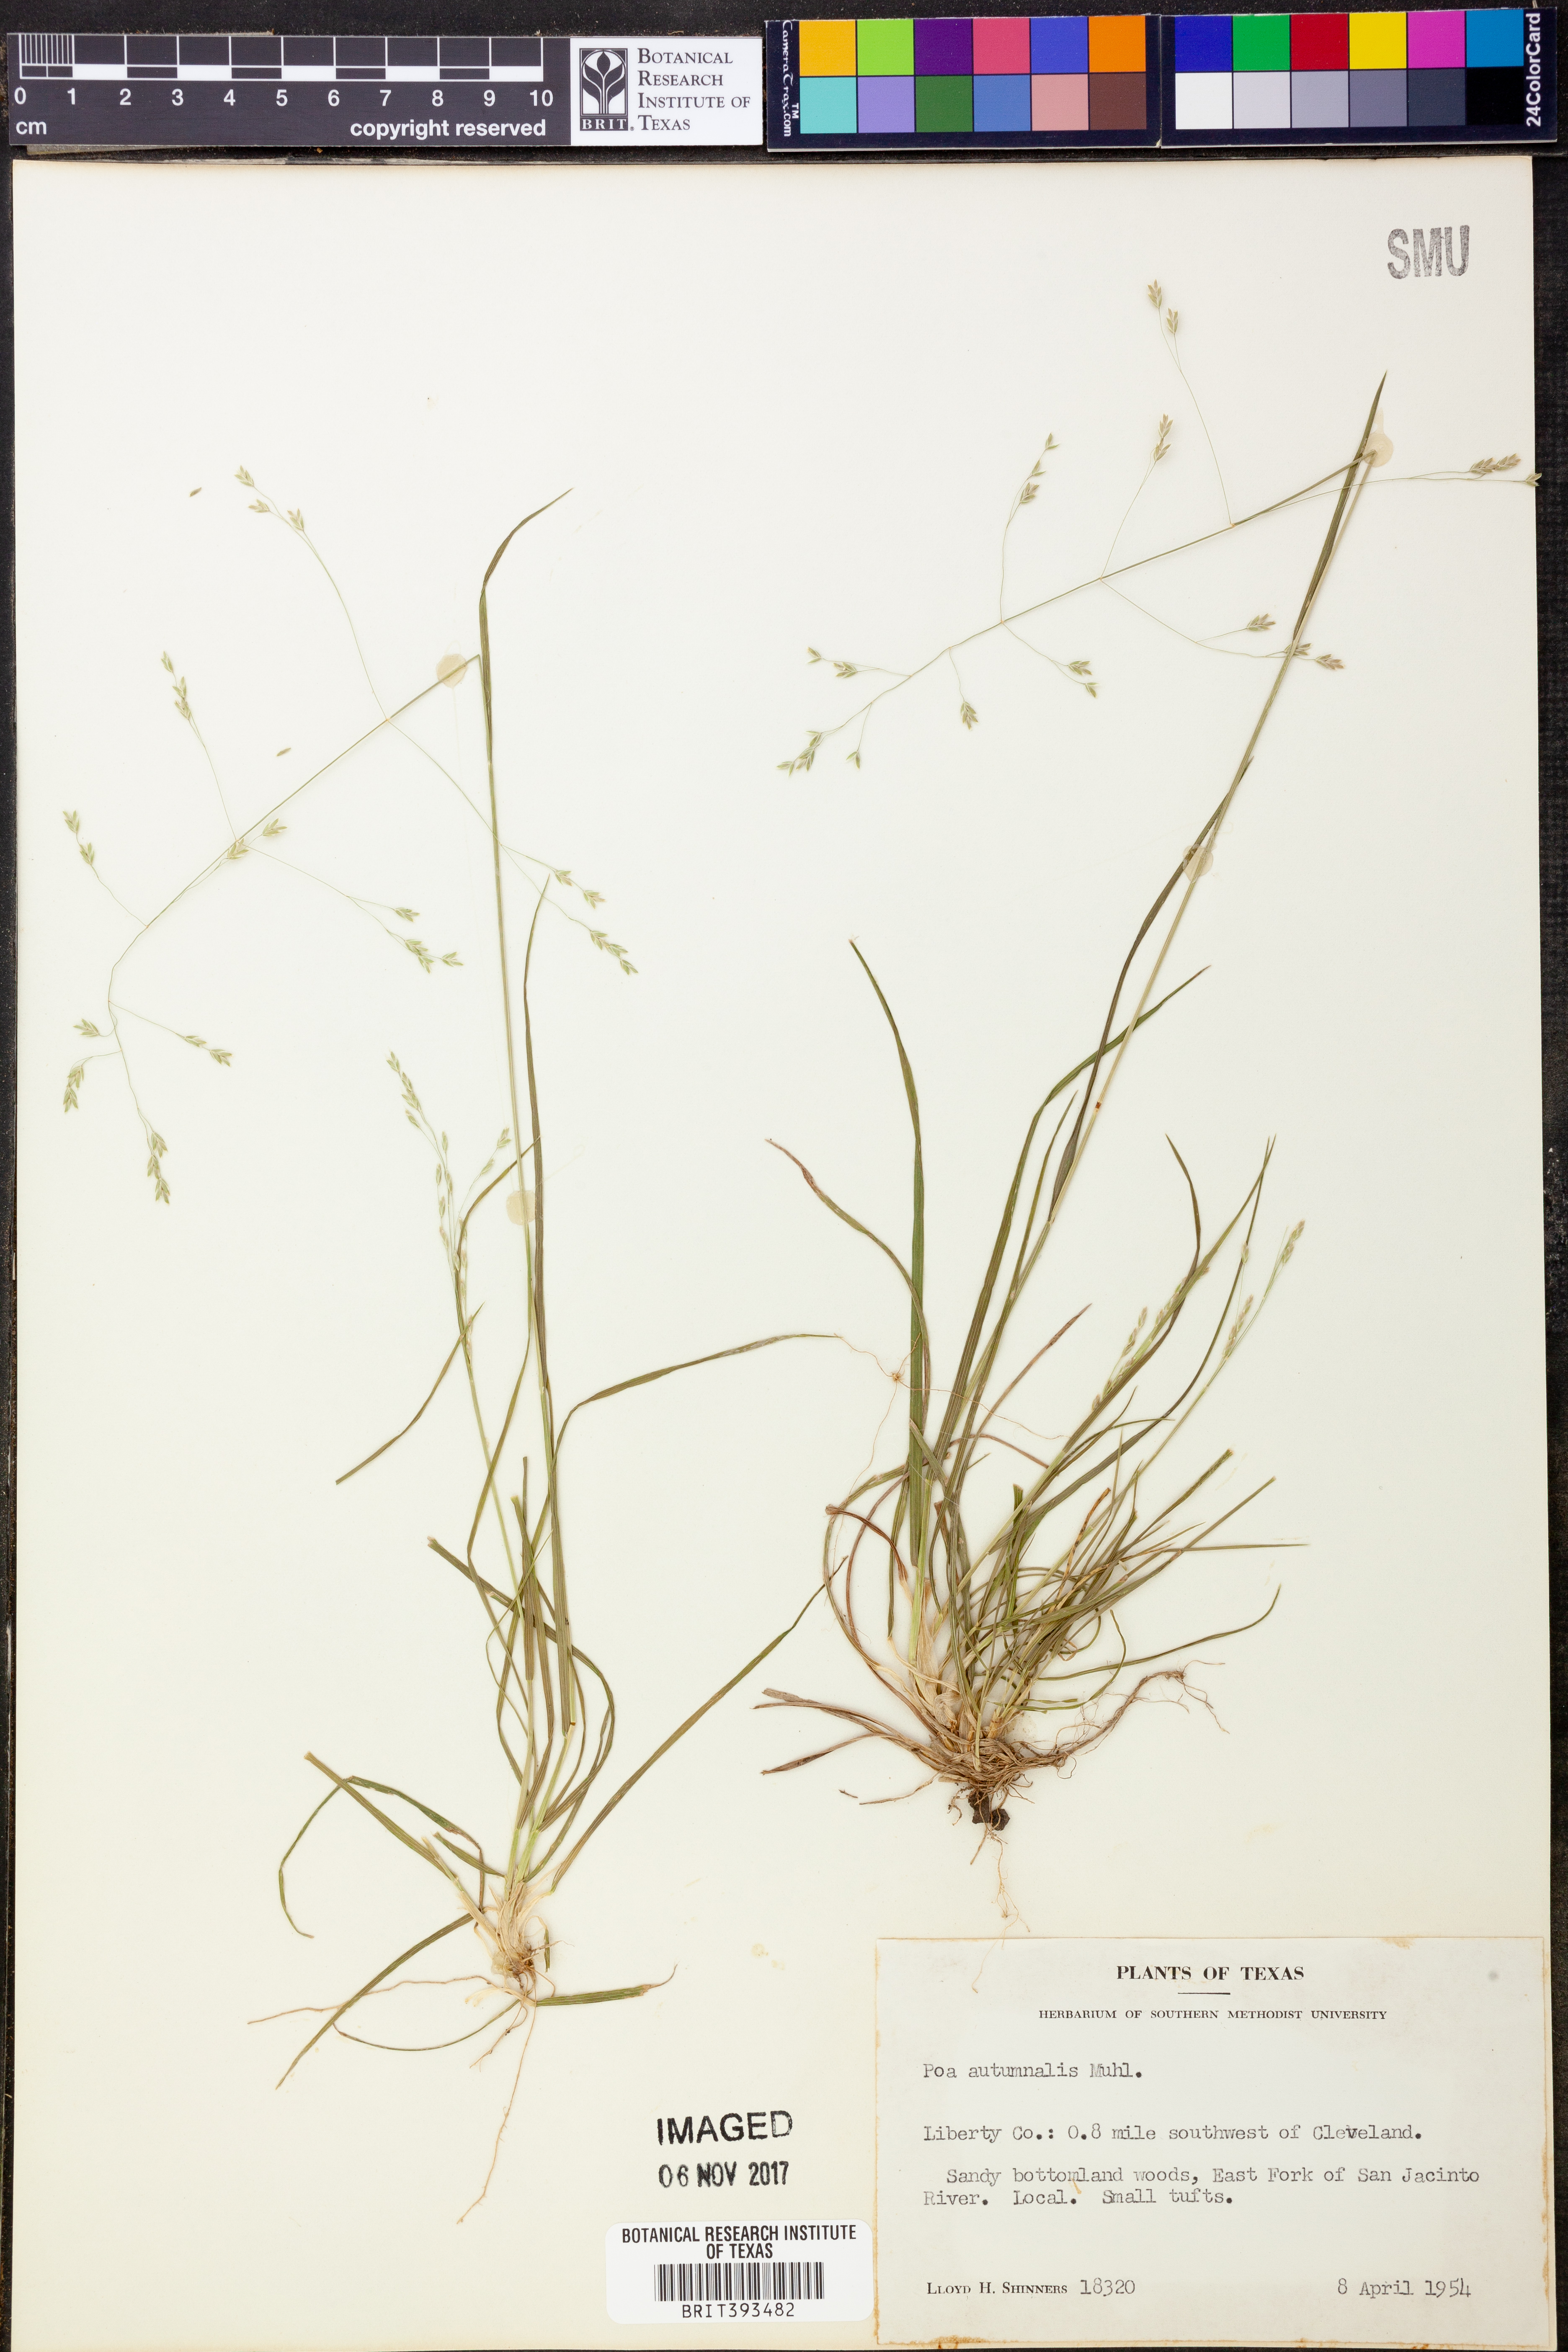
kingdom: Plantae
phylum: Tracheophyta
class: Liliopsida
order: Poales
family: Poaceae
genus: Poa
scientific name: Poa autumnalis
